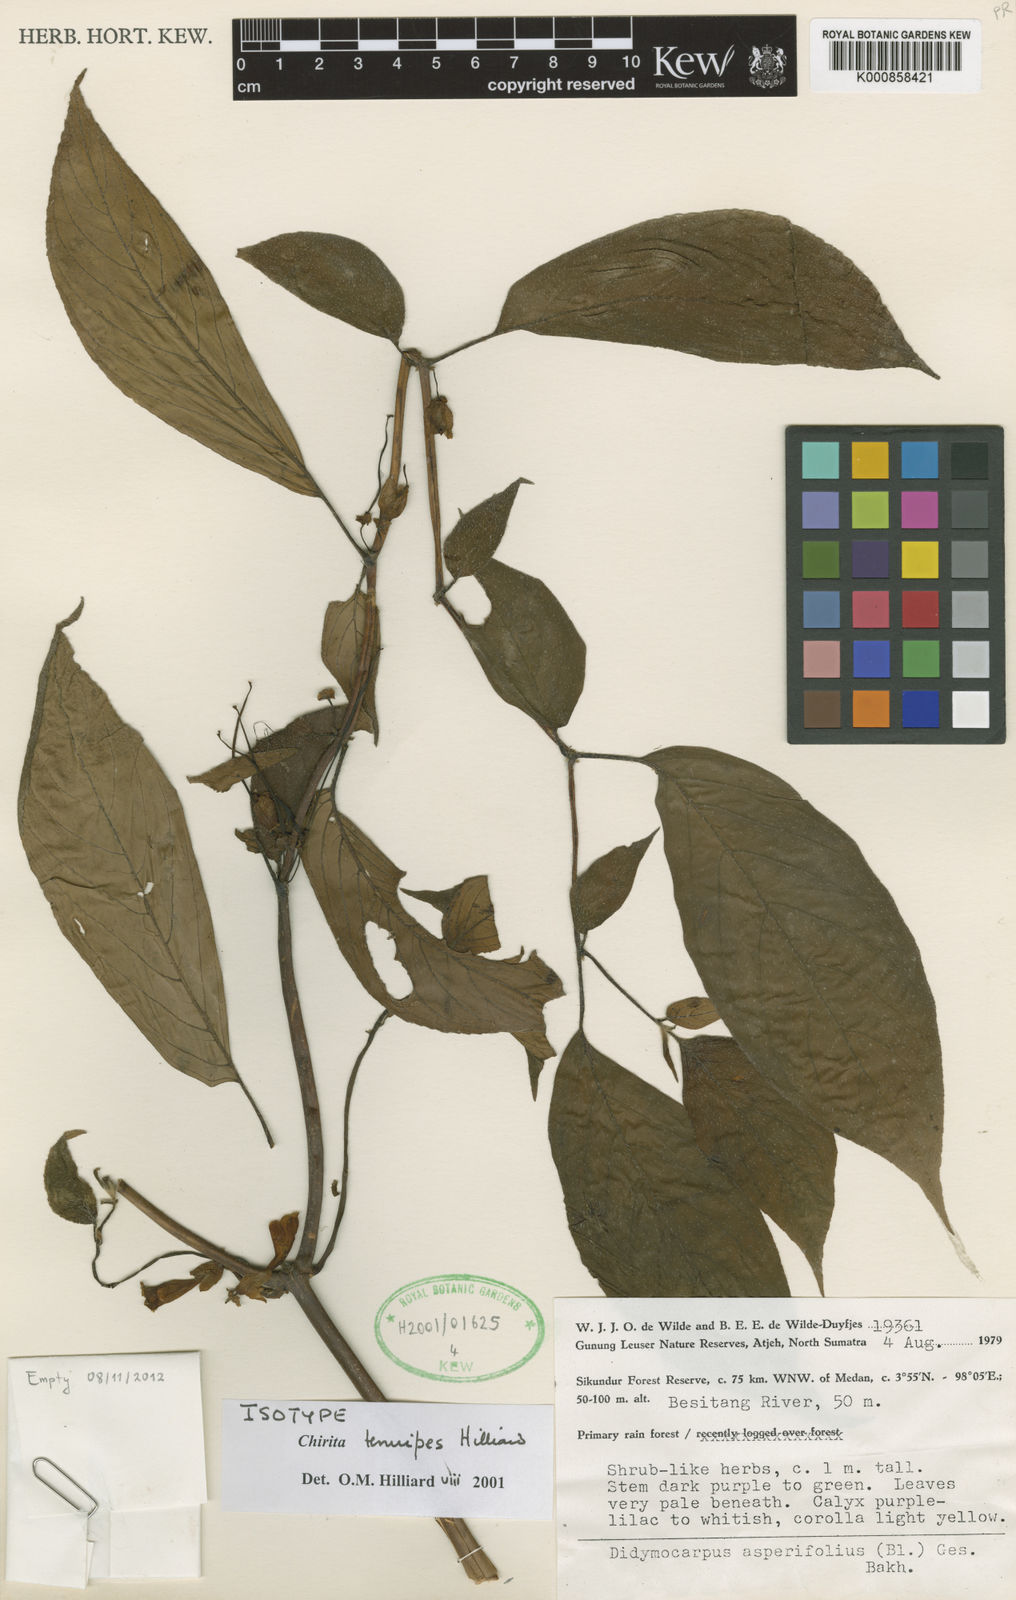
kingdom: Plantae
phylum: Tracheophyta
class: Magnoliopsida
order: Lamiales
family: Gesneriaceae
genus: Liebigia
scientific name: Liebigia tenuipes
